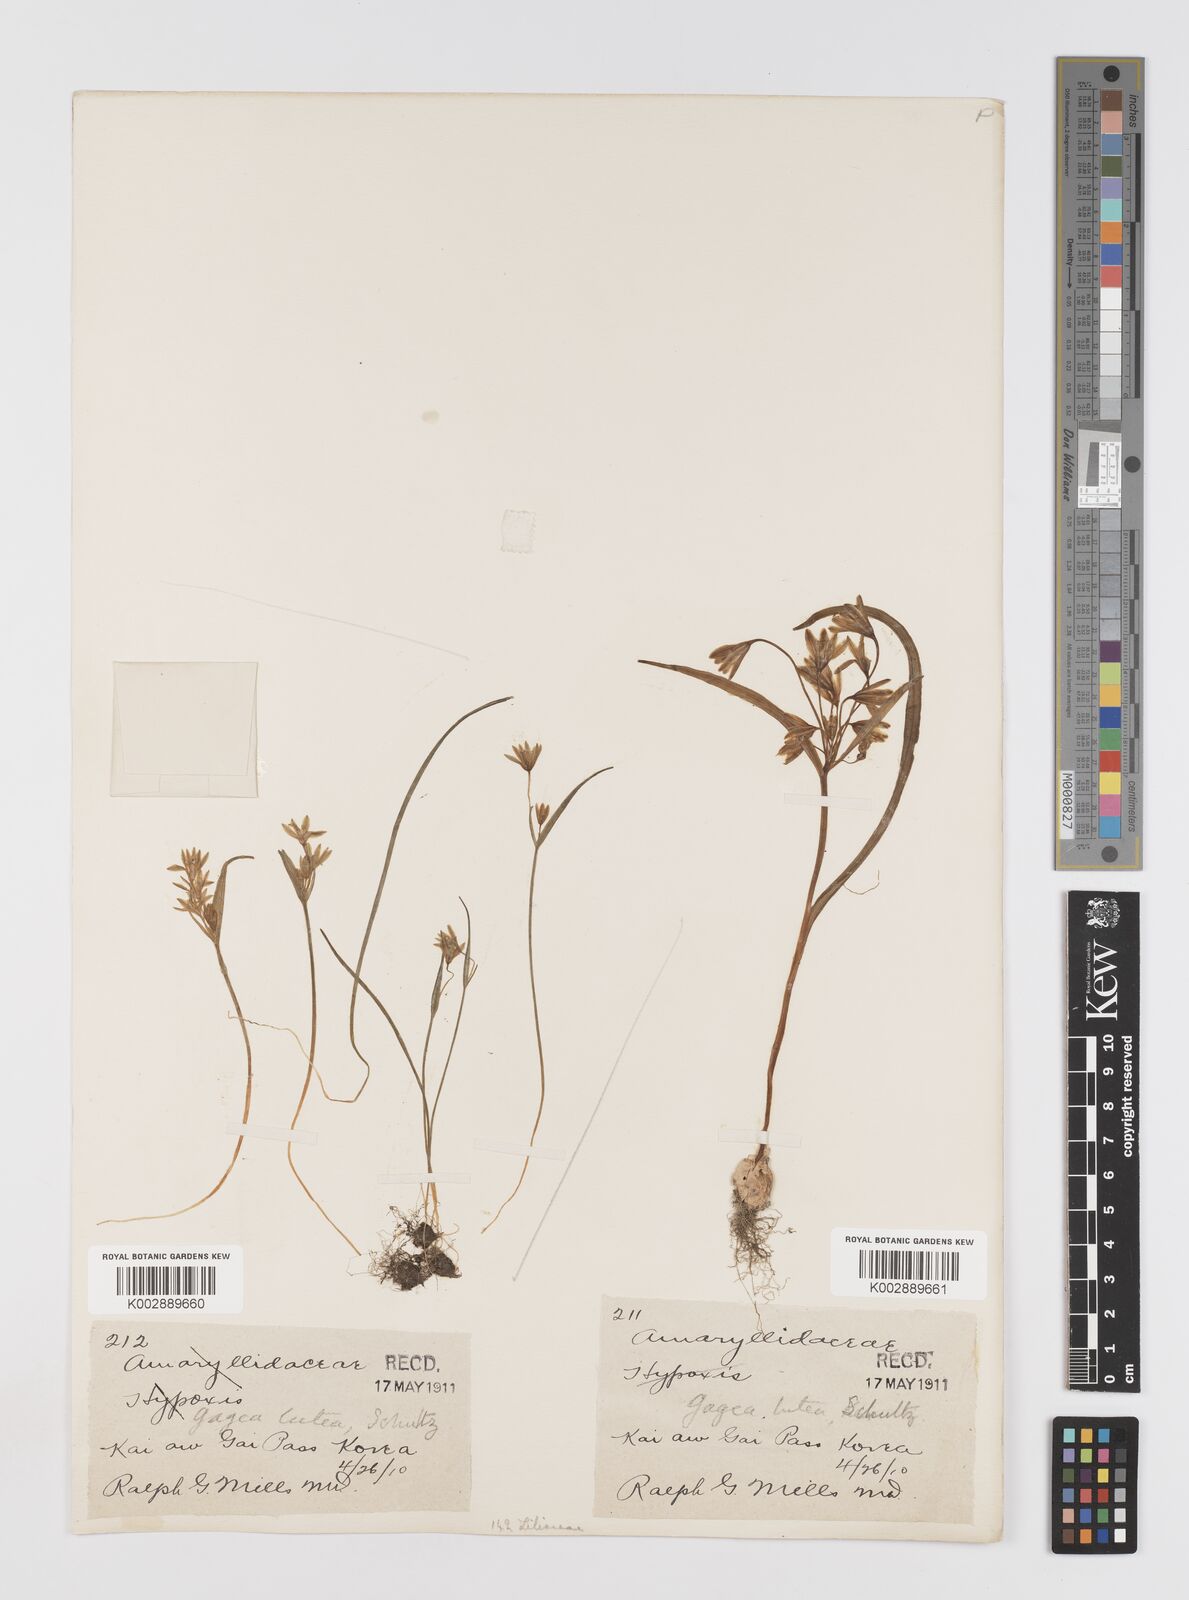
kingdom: Plantae
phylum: Tracheophyta
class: Liliopsida
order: Liliales
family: Liliaceae
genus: Gagea
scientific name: Gagea lutea
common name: Yellow star-of-bethlehem
